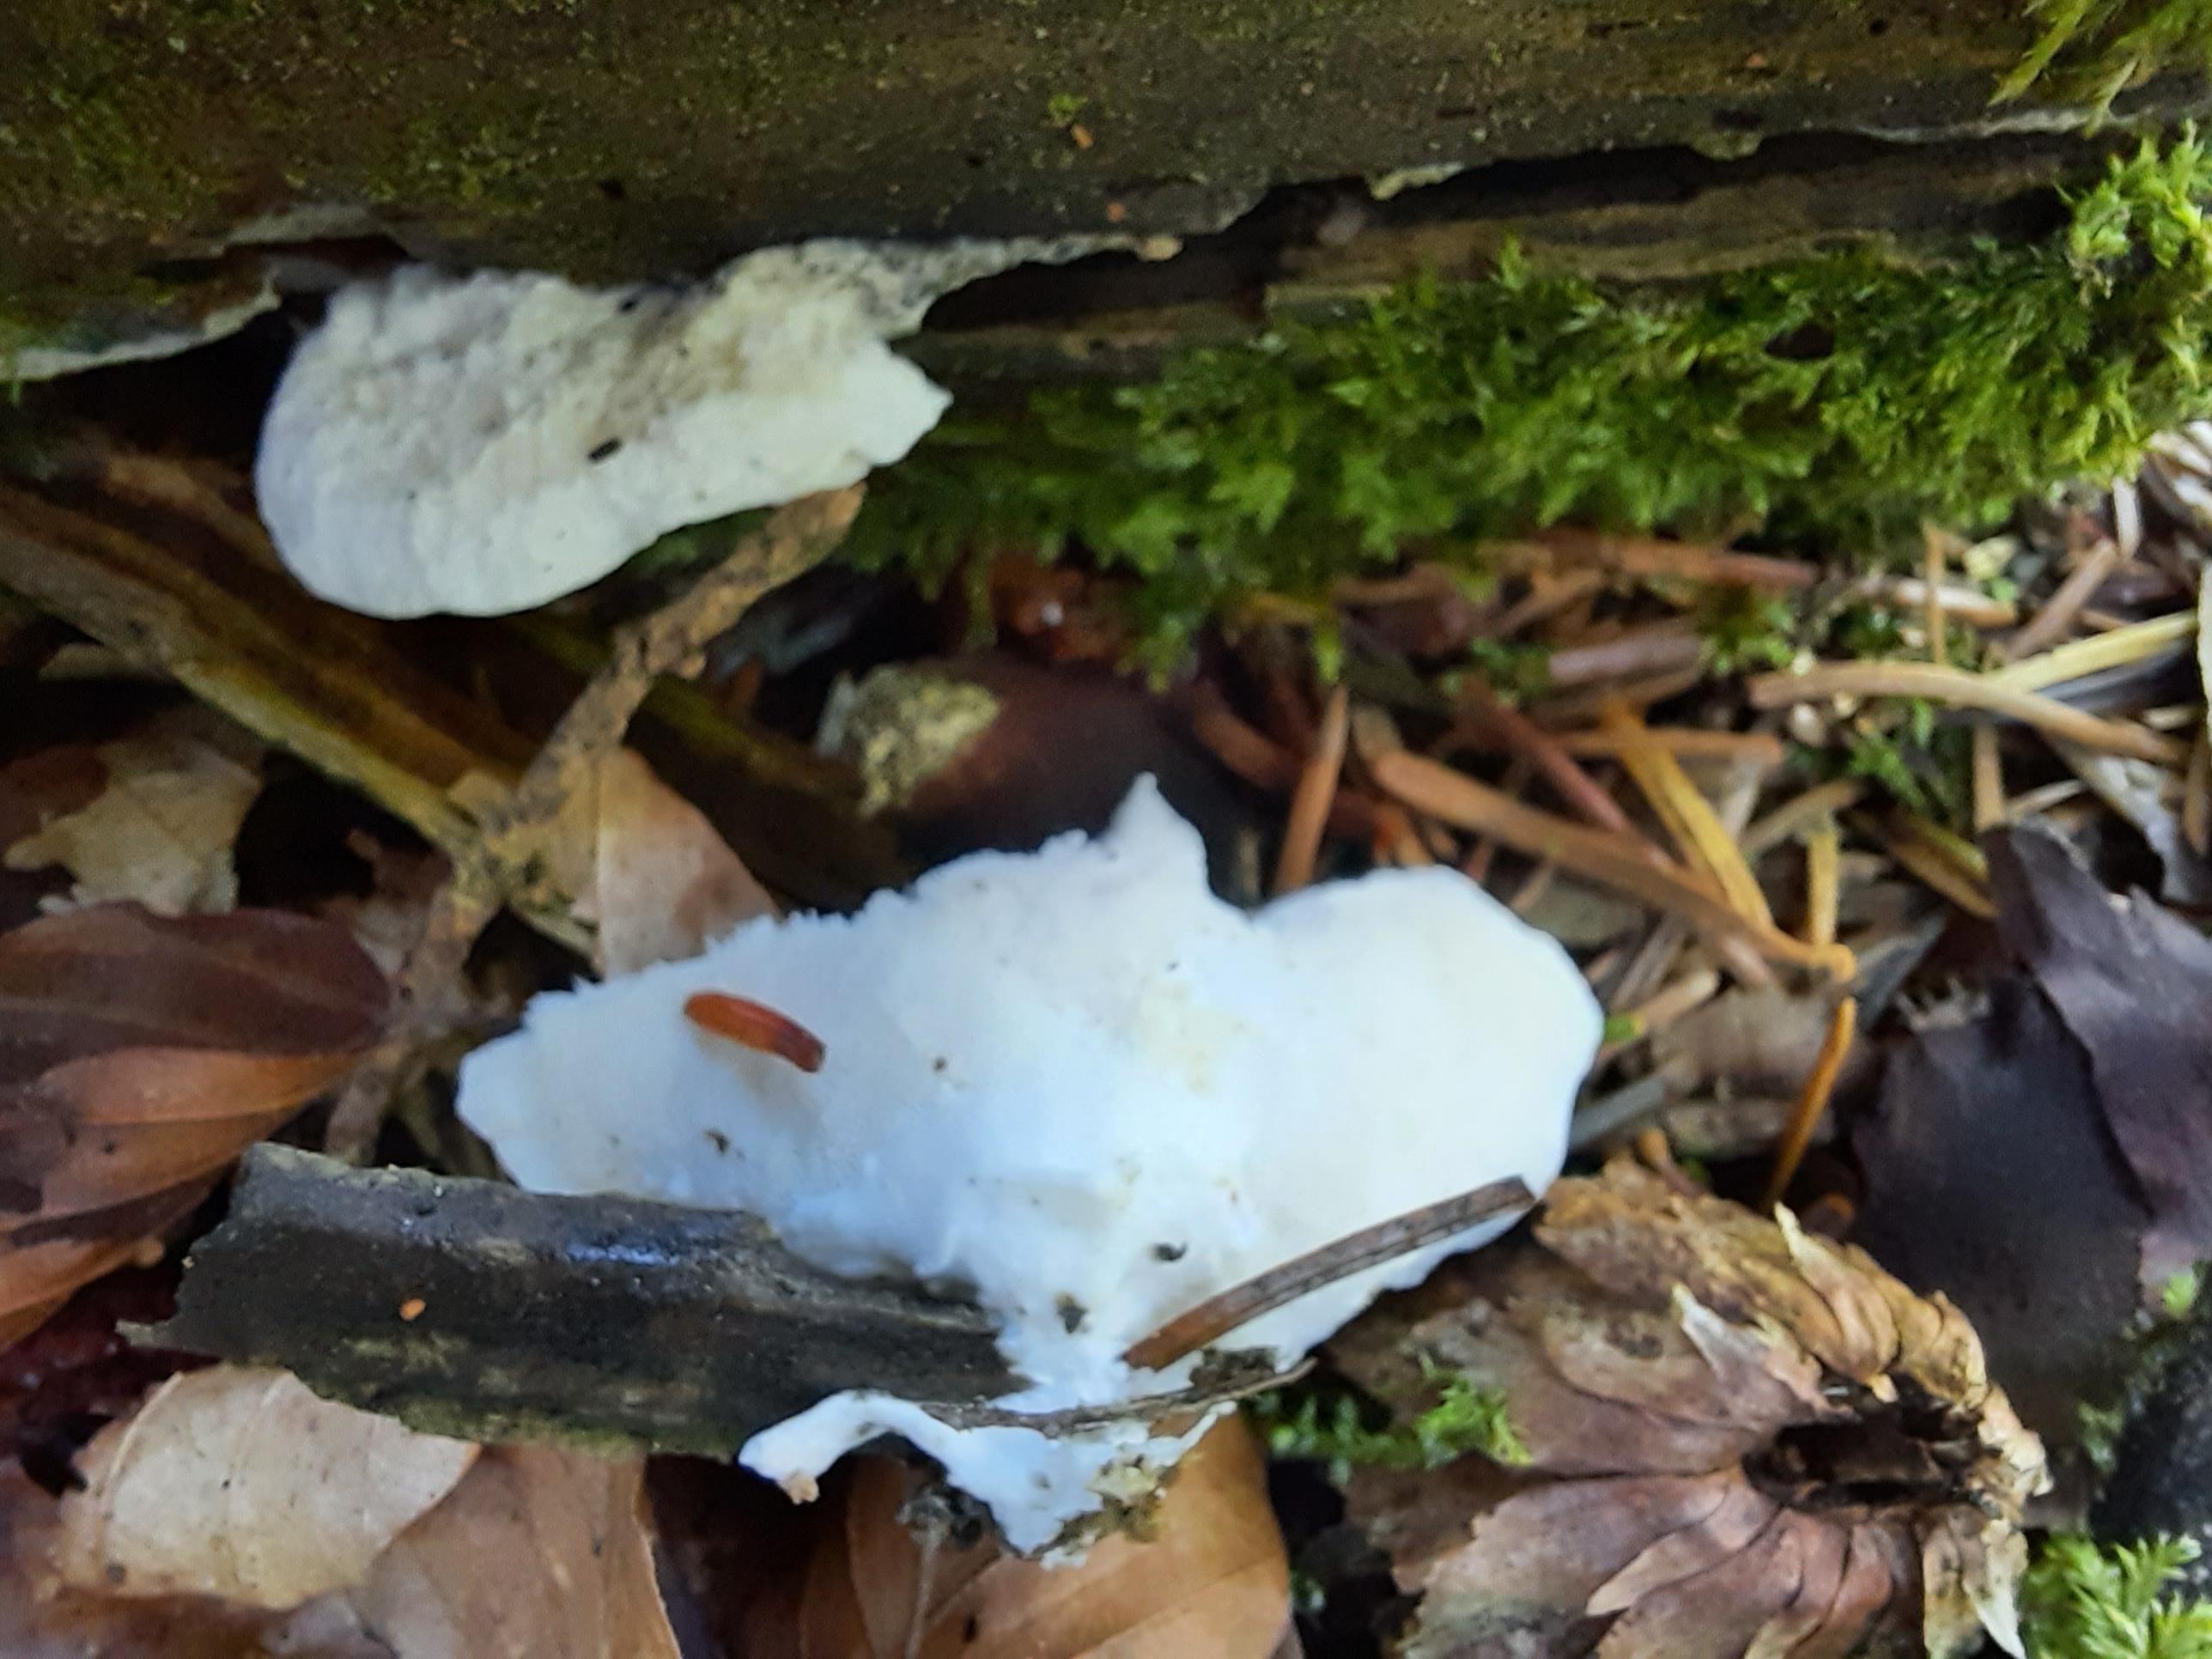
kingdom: Fungi
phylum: Basidiomycota
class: Agaricomycetes
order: Polyporales
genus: Amaropostia
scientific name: Amaropostia stiptica
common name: bitter kødporesvamp
